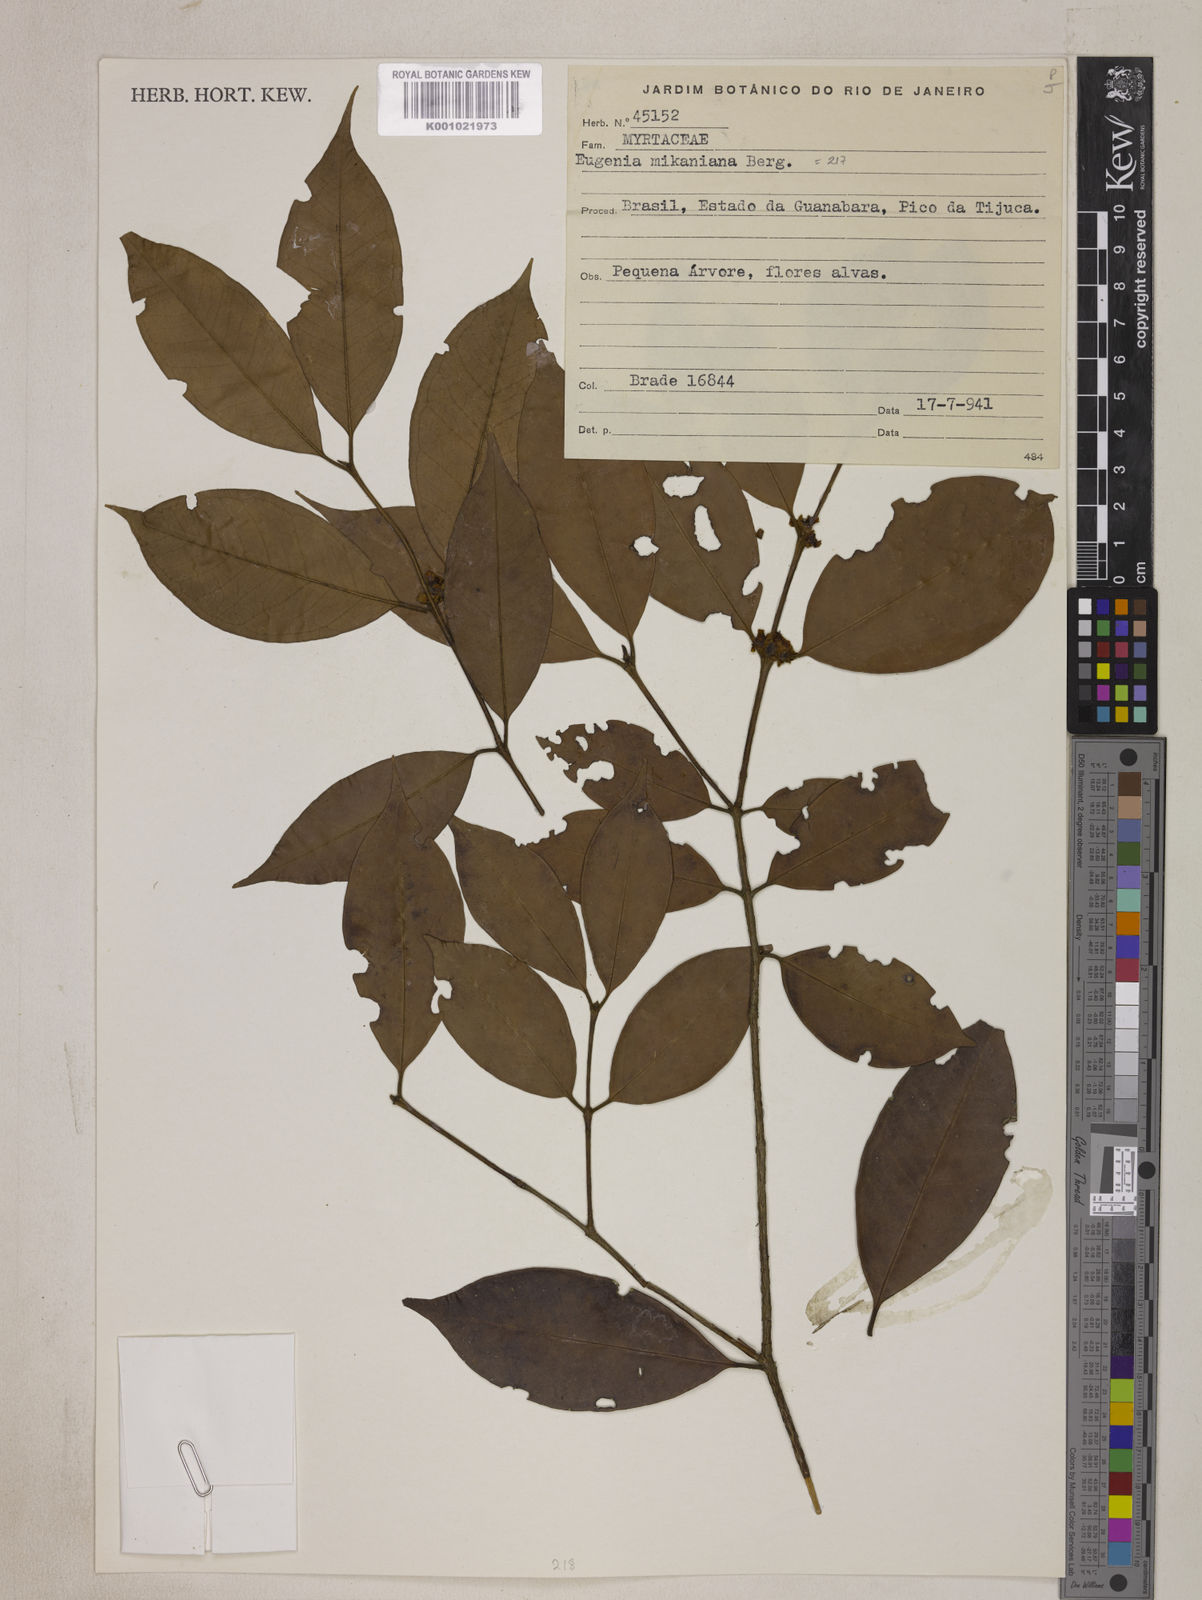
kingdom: Plantae
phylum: Tracheophyta
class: Magnoliopsida
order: Myrtales
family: Myrtaceae
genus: Eugenia
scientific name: Eugenia candolleana
